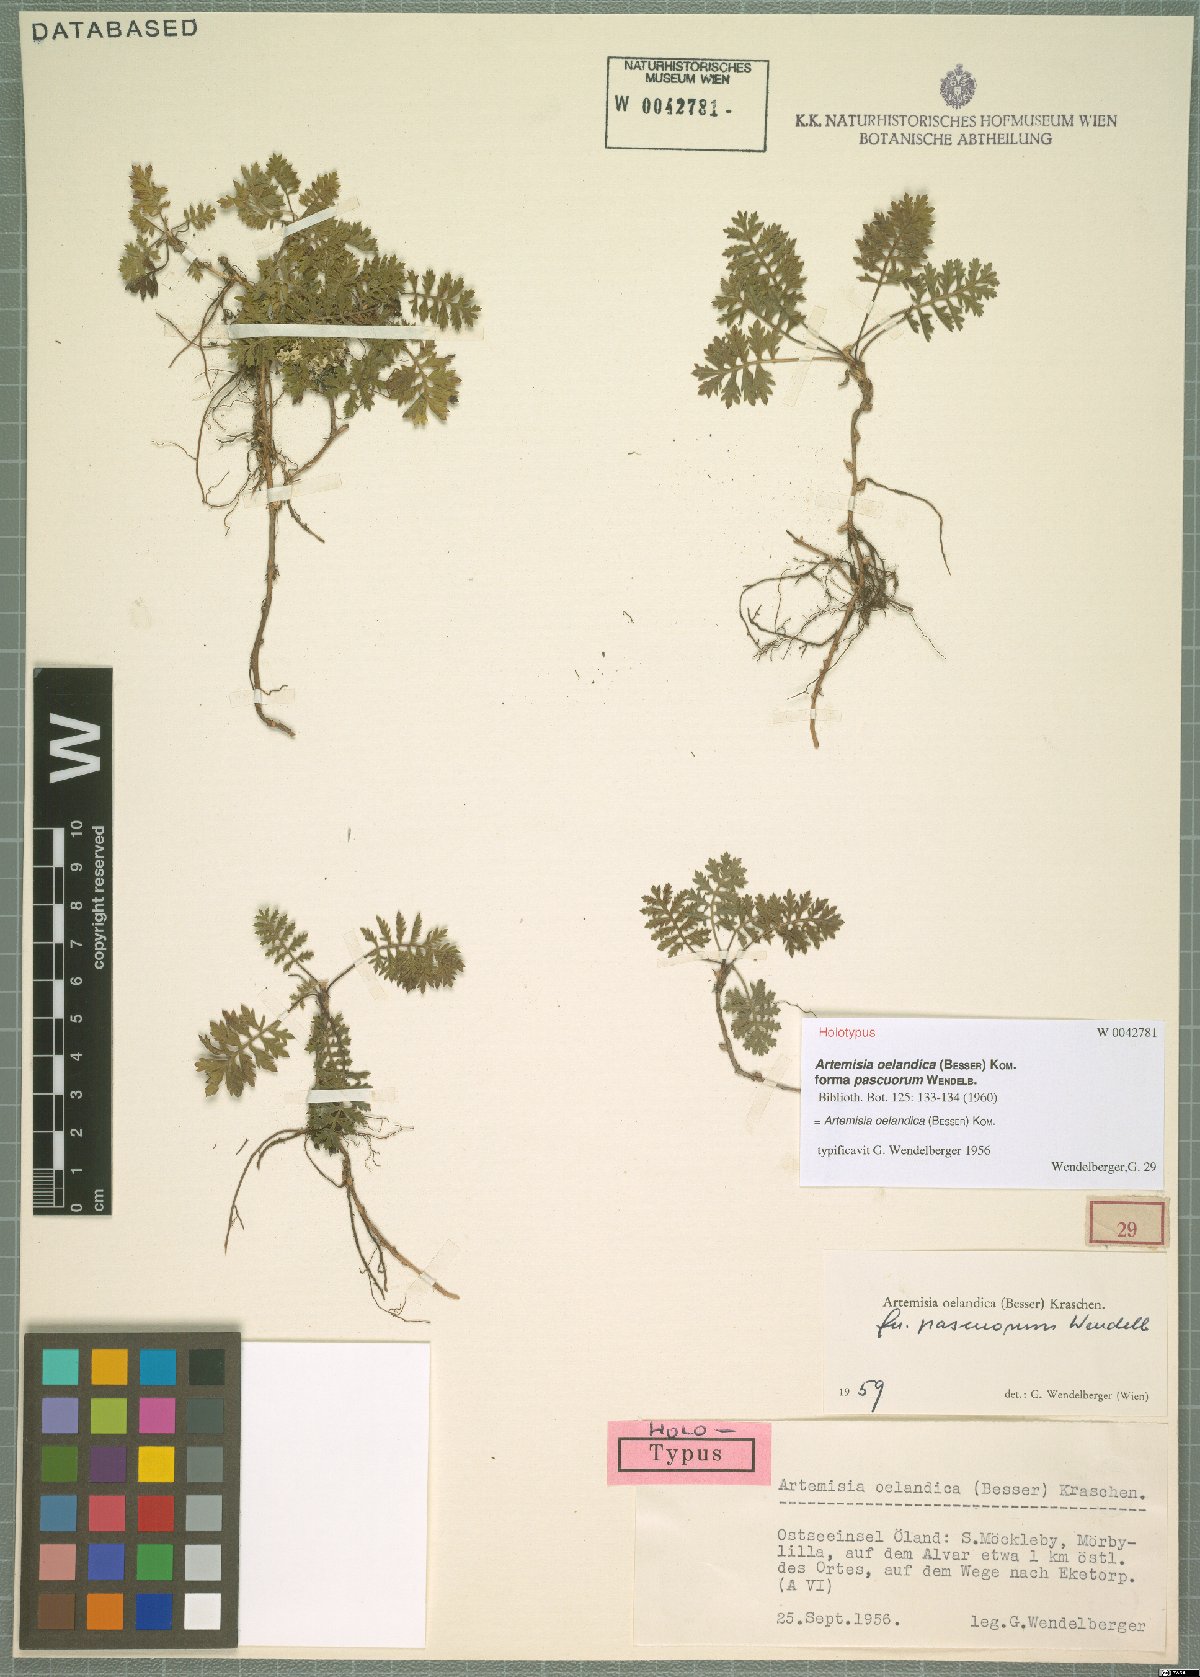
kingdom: Plantae
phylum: Tracheophyta
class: Magnoliopsida
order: Asterales
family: Asteraceae
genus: Artemisia
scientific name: Artemisia oelandica
